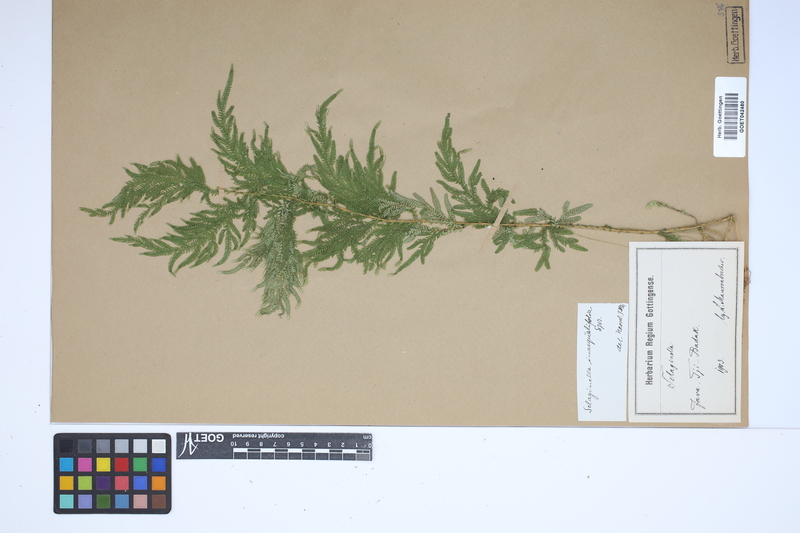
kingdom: Plantae
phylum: Tracheophyta
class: Lycopodiopsida
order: Selaginellales
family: Selaginellaceae
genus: Selaginella
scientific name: Selaginella inaequalifolia
